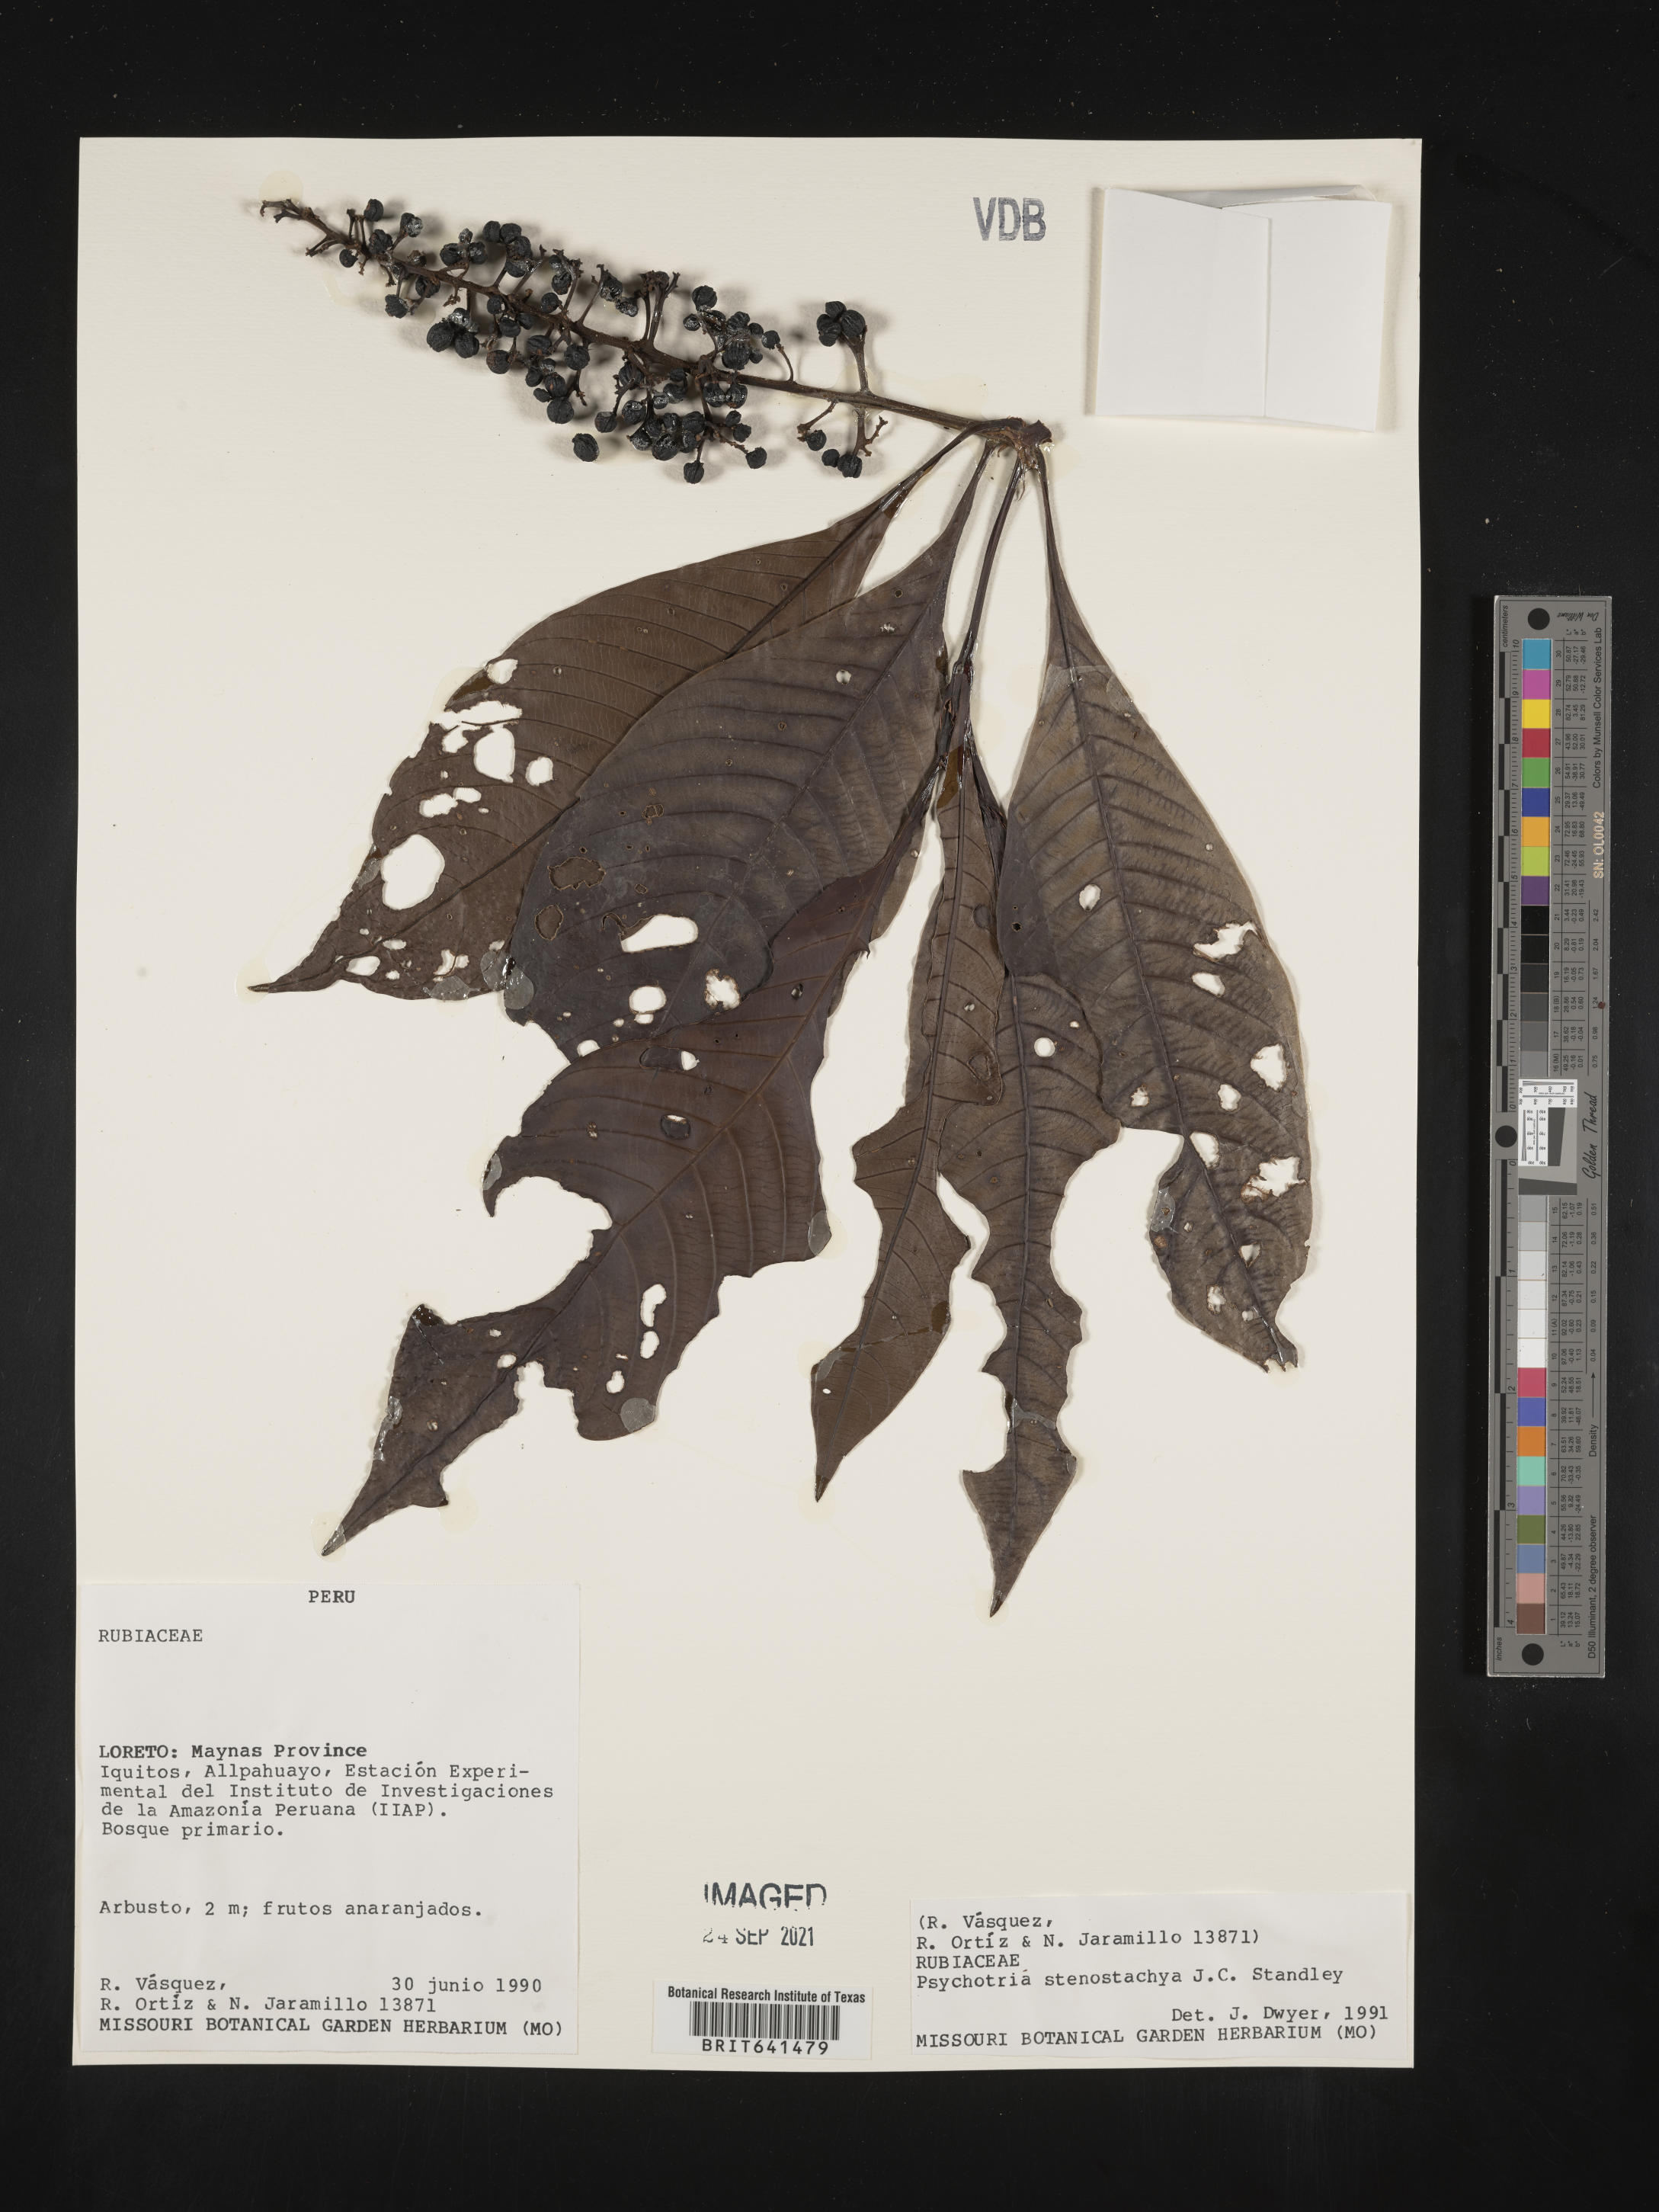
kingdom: Plantae
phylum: Tracheophyta
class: Magnoliopsida
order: Gentianales
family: Rubiaceae
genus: Psychotria
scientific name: Psychotria
